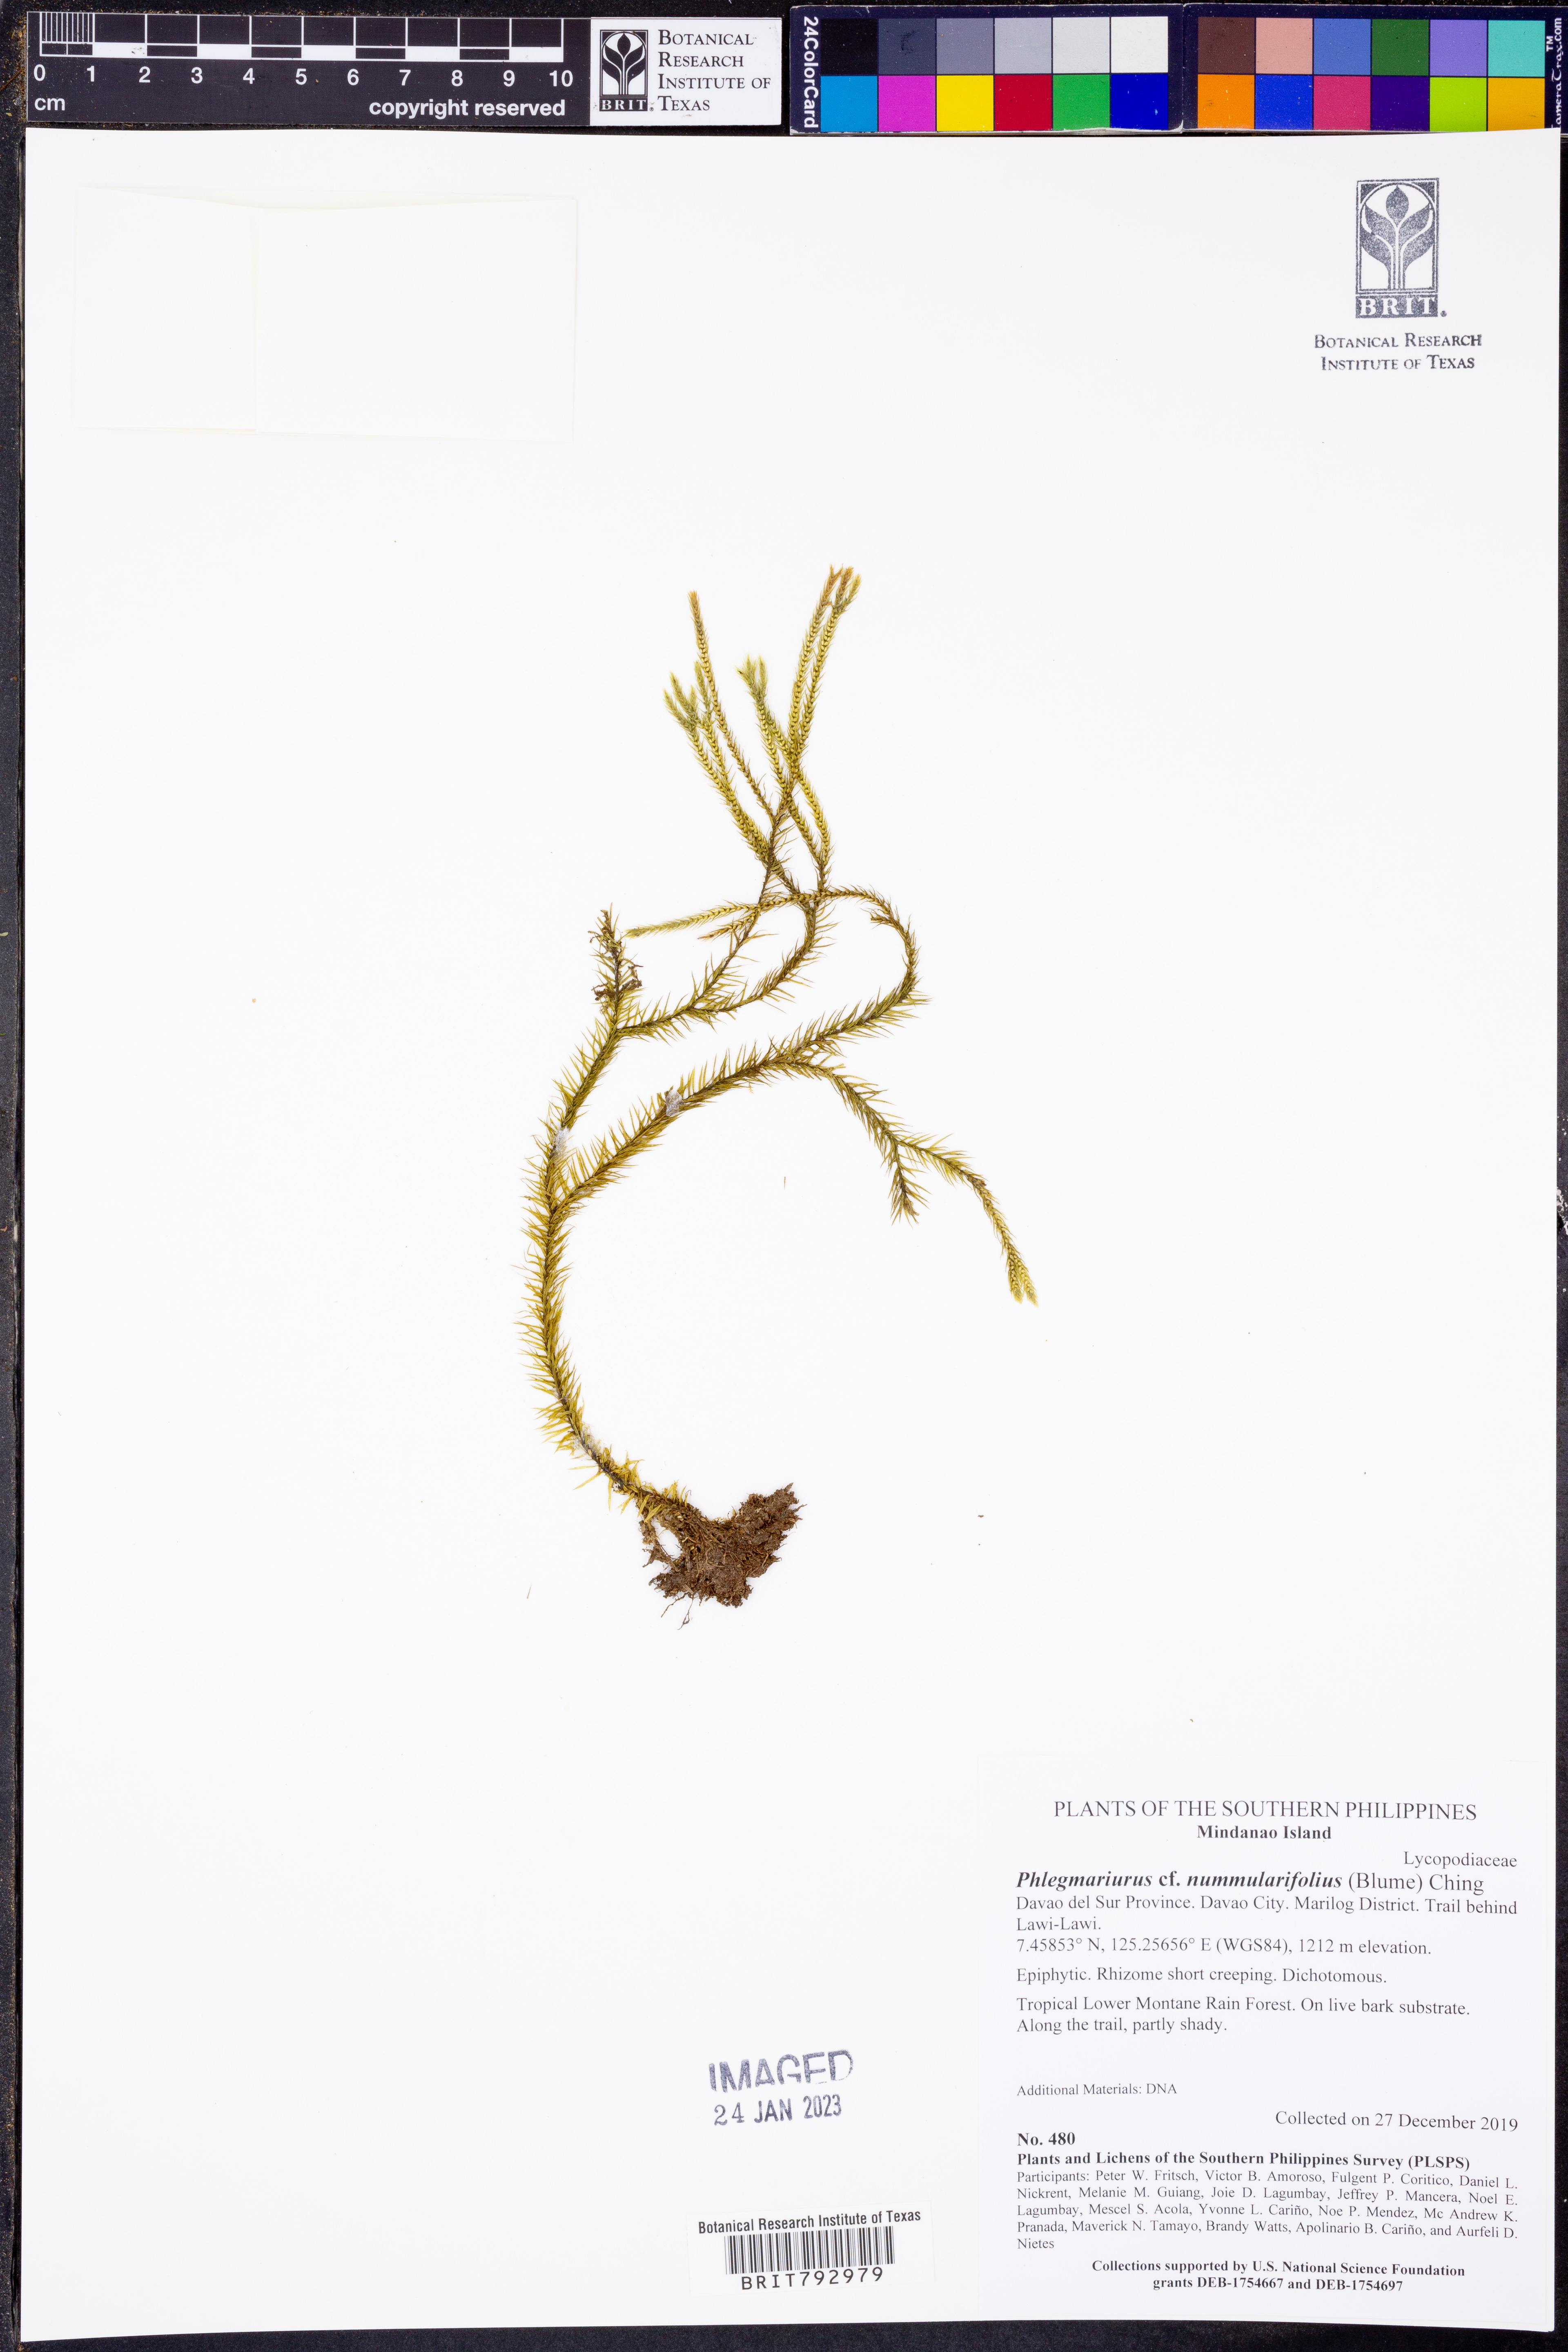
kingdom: Plantae
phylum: Tracheophyta
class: Lycopodiopsida
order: Lycopodiales
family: Lycopodiaceae
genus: Phlegmariurus
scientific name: Phlegmariurus nummulariifolius
